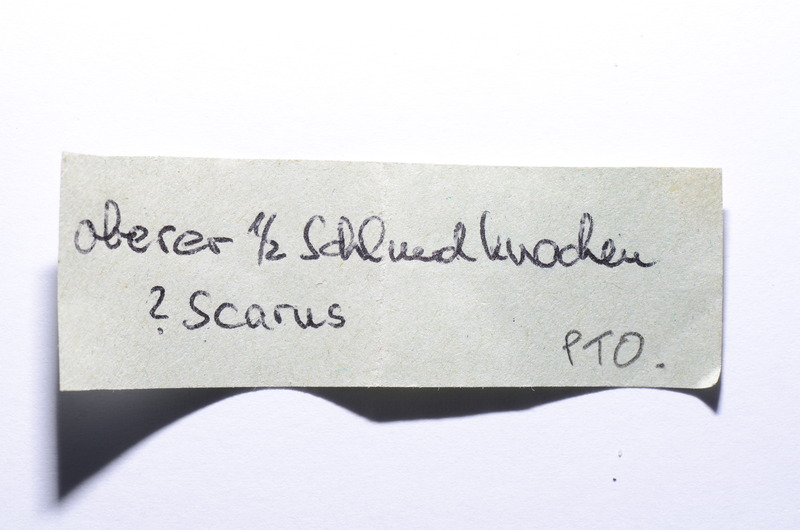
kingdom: Animalia
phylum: Chordata
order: Perciformes
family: Scaridae
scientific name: Scaridae
